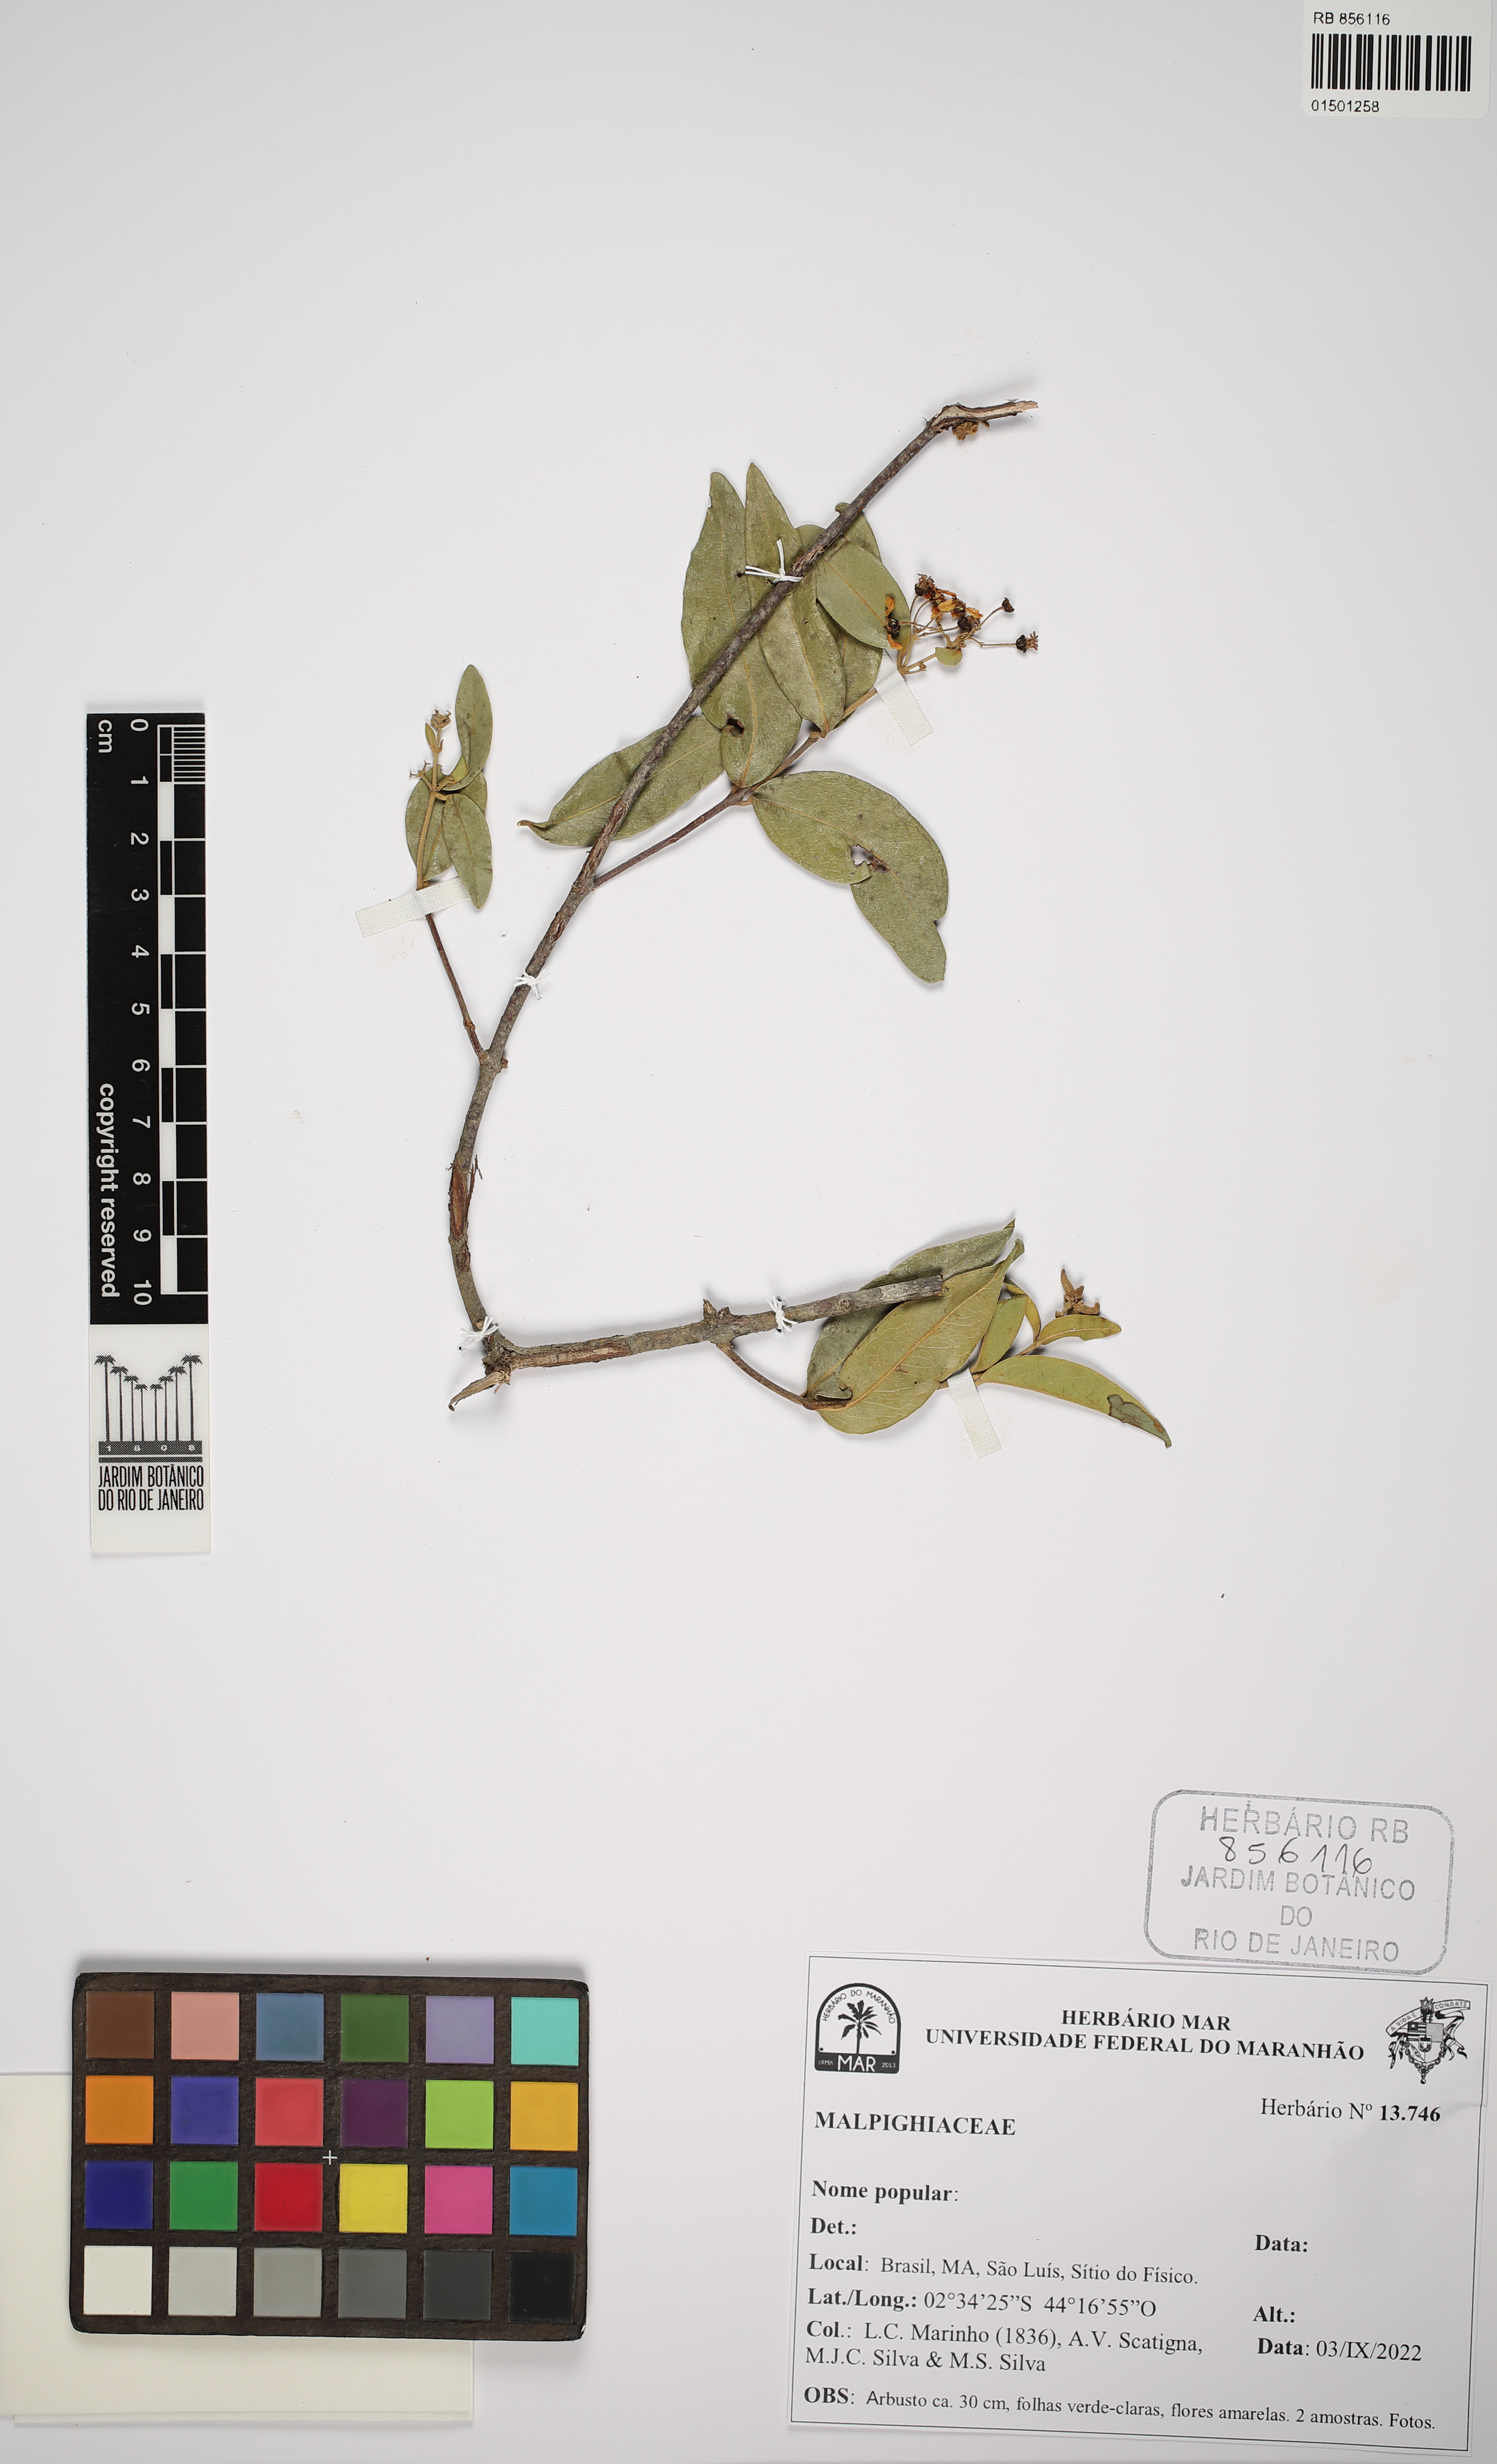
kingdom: Plantae
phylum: Tracheophyta
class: Magnoliopsida
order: Malpighiales
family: Malpighiaceae
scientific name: Malpighiaceae
